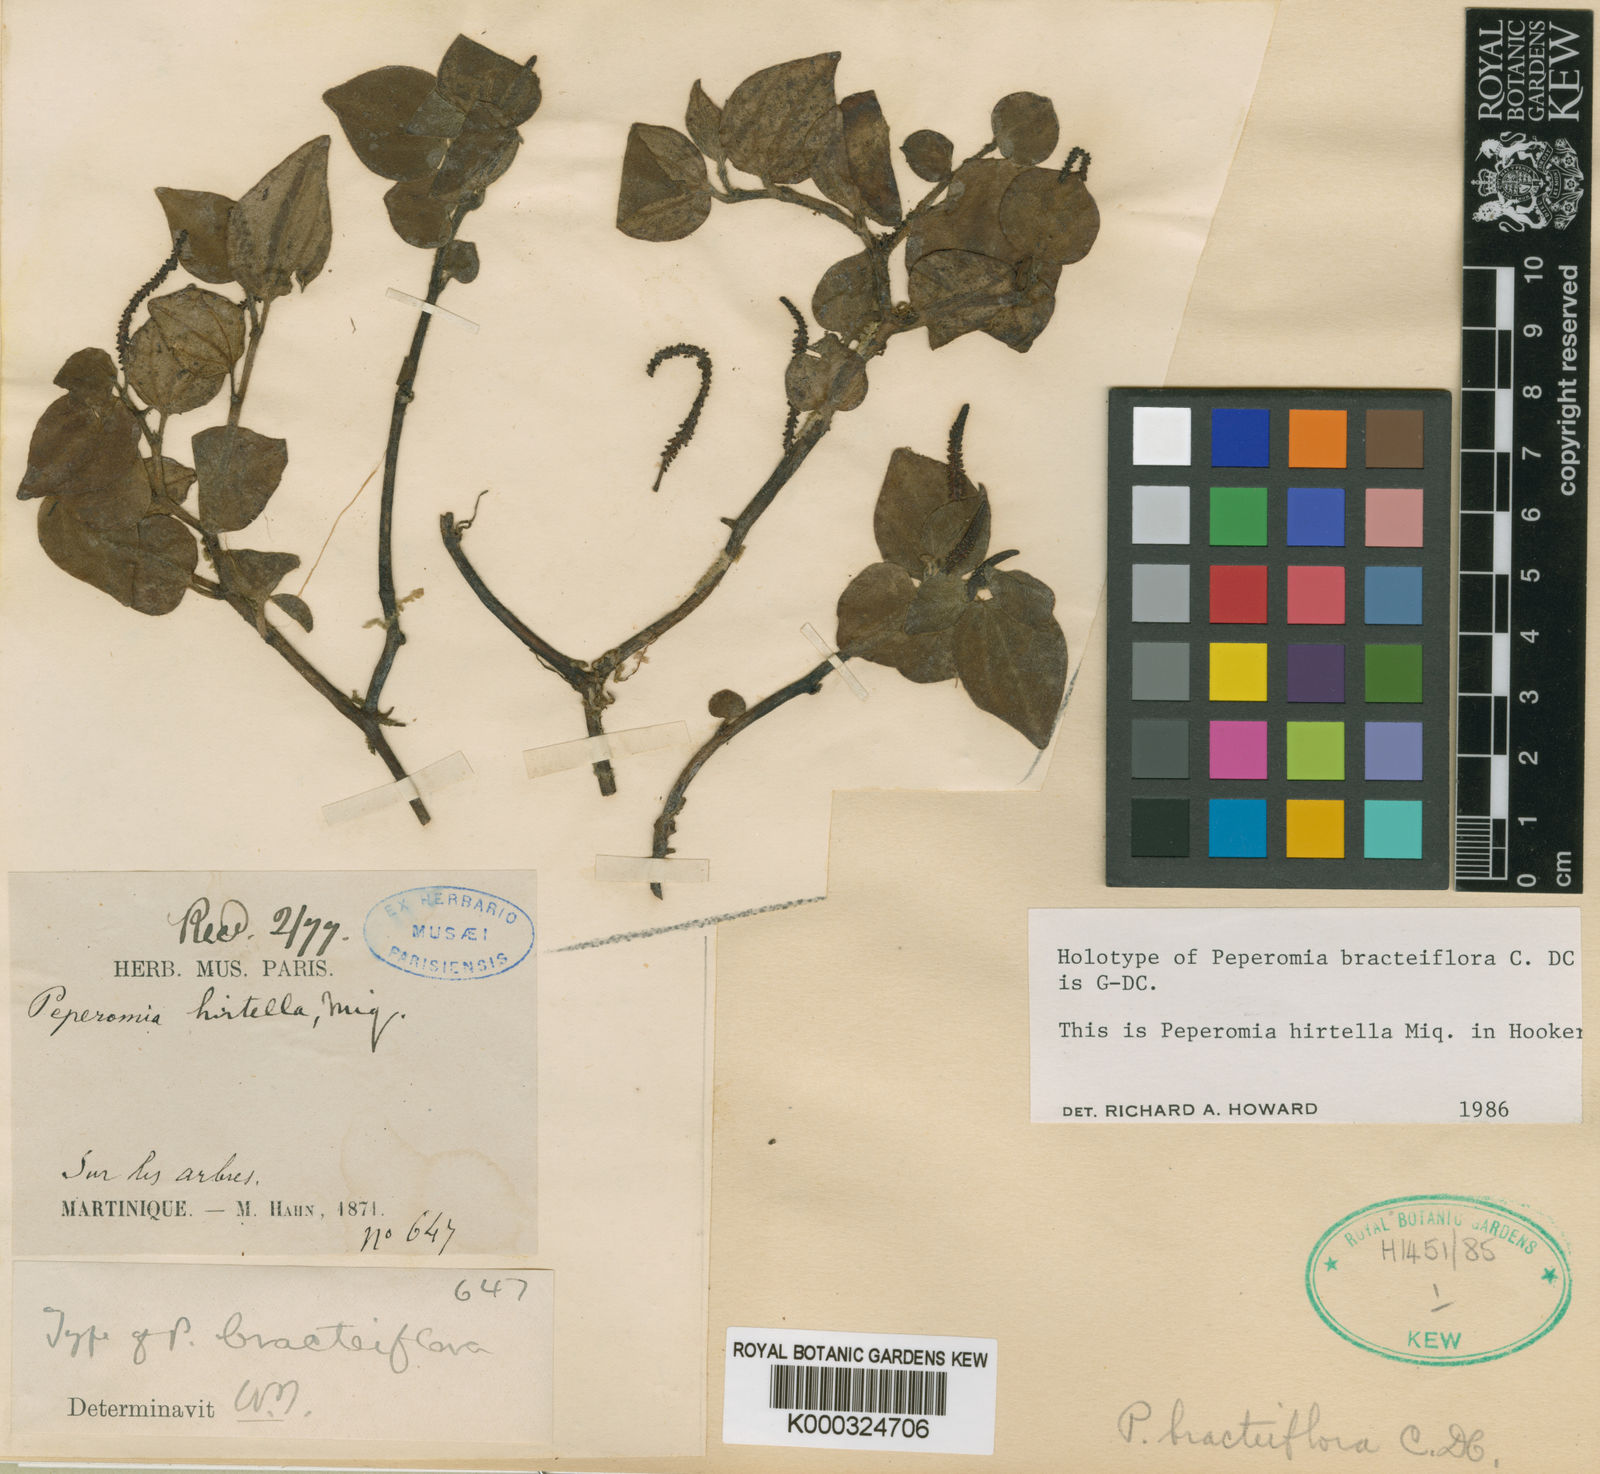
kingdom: Plantae
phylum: Tracheophyta
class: Magnoliopsida
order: Piperales
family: Piperaceae
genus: Peperomia
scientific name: Peperomia hirtella
